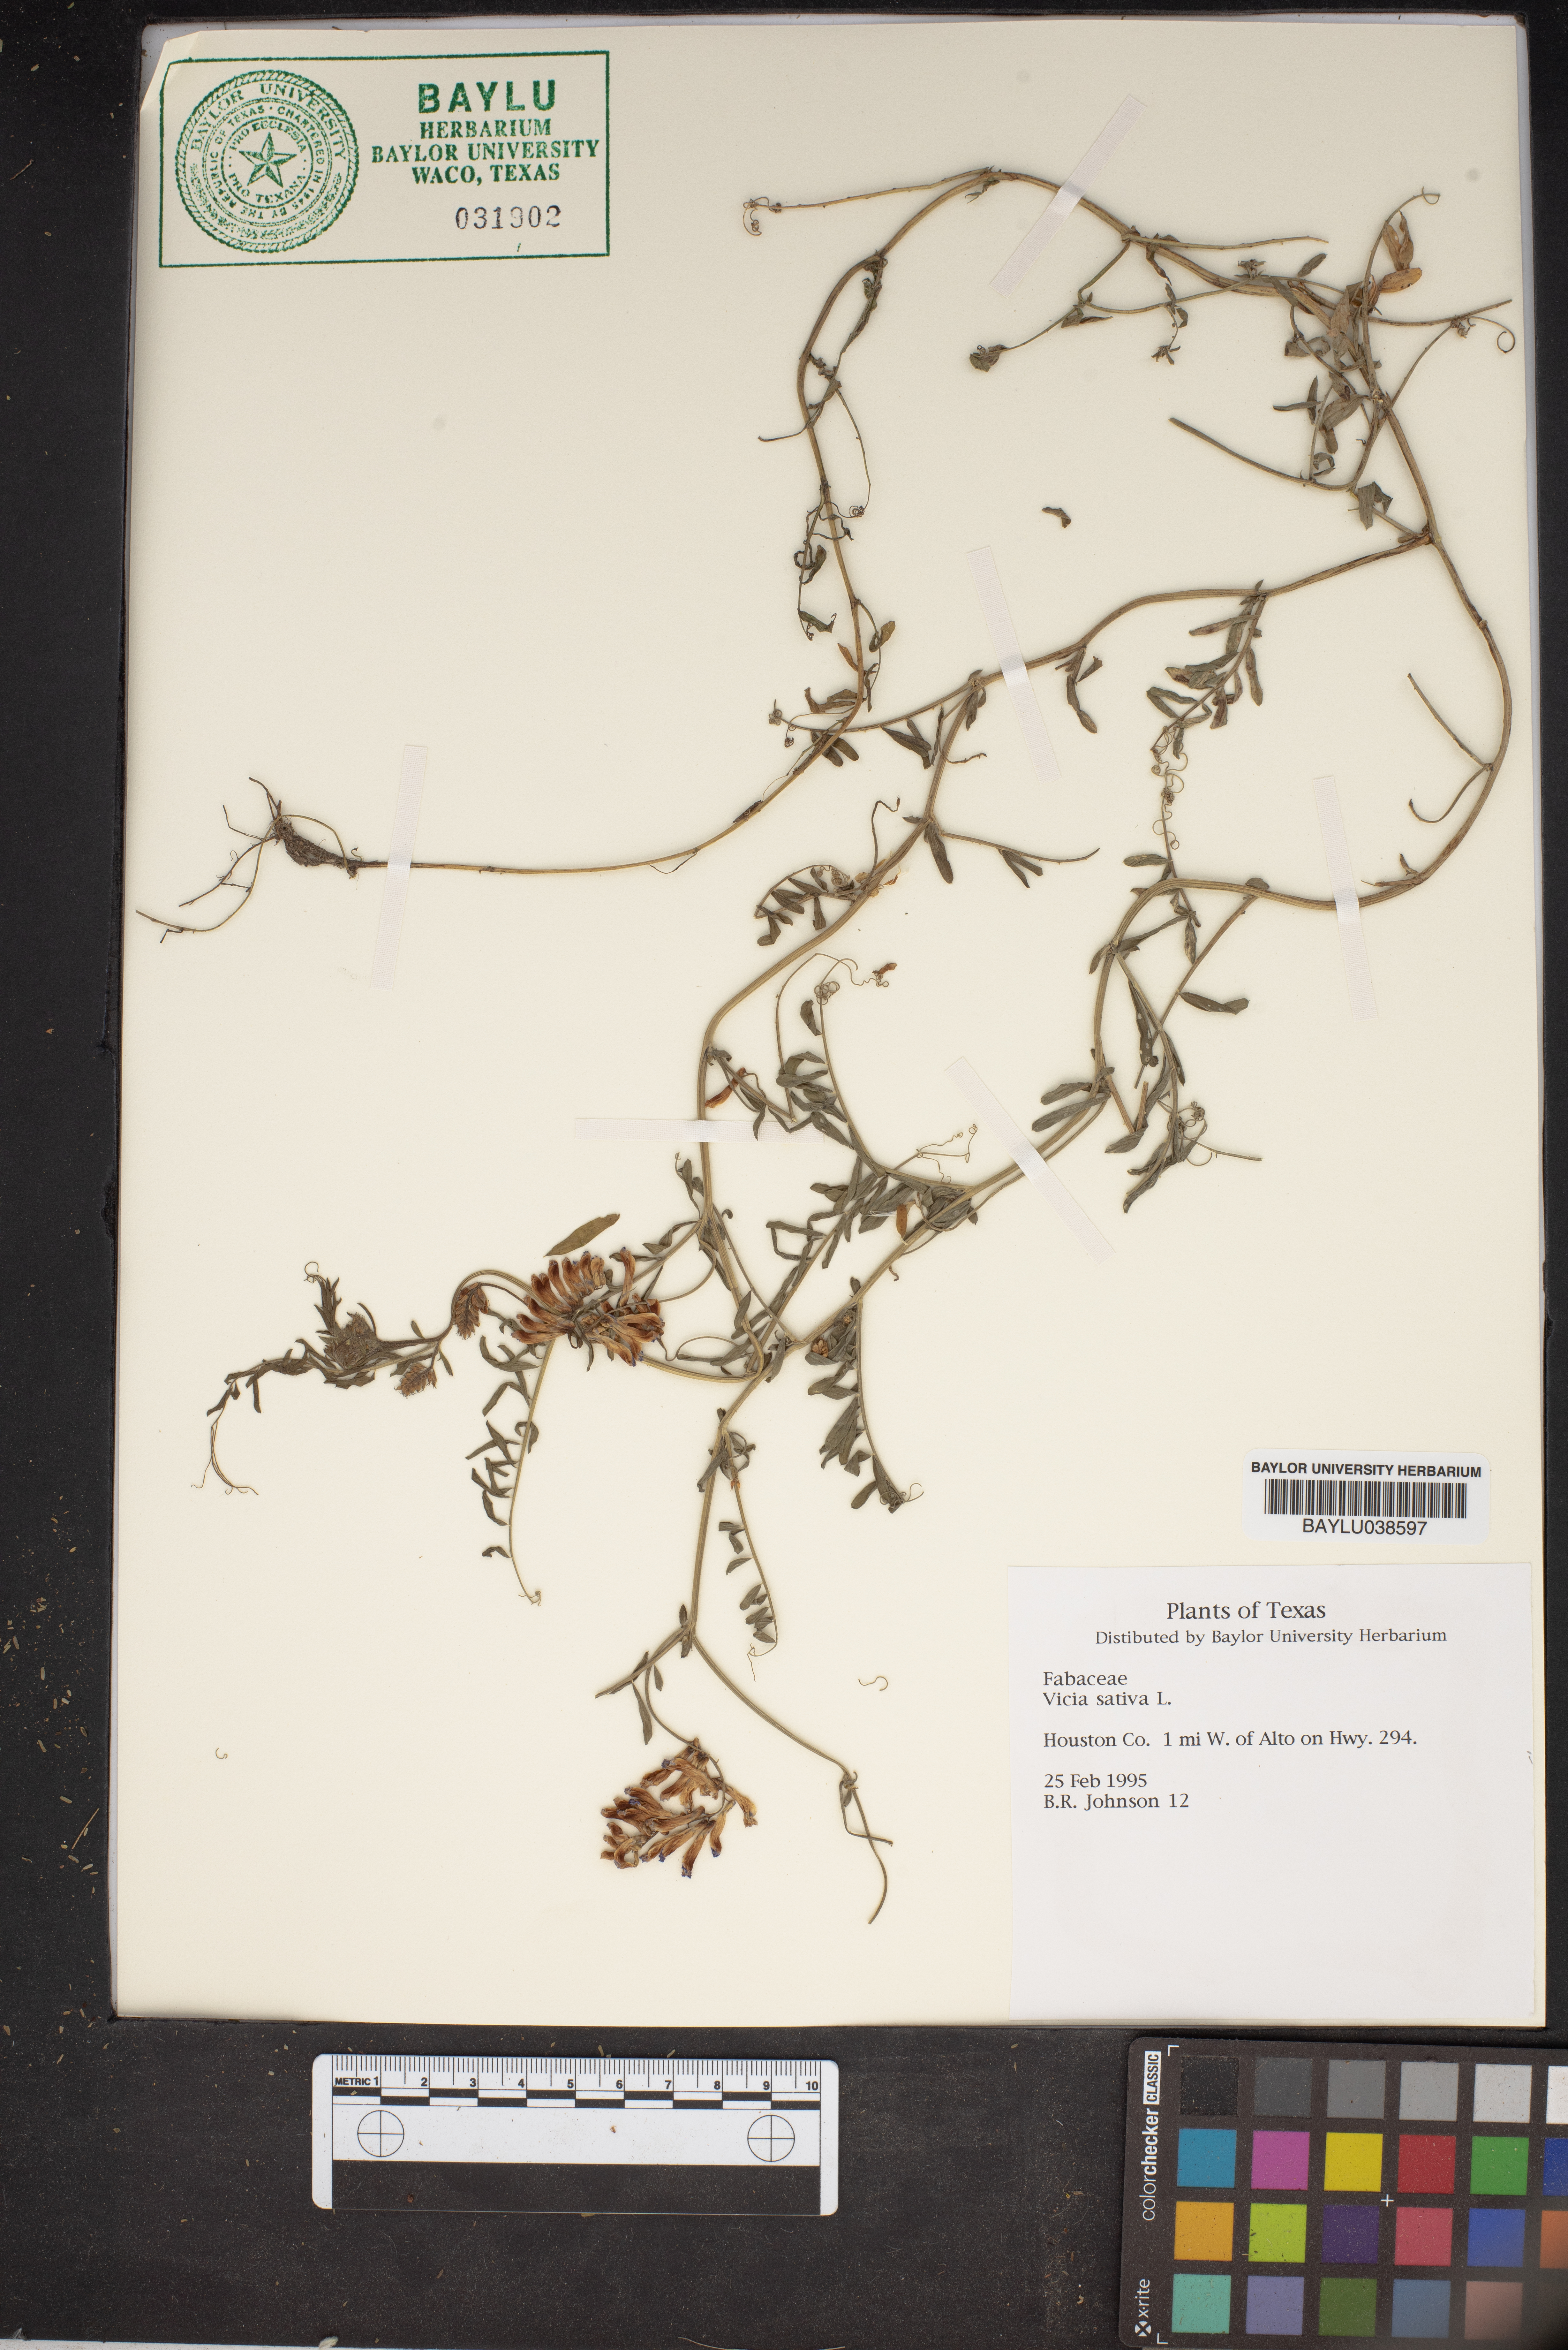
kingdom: Plantae
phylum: Tracheophyta
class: Magnoliopsida
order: Fabales
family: Fabaceae
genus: Vicia
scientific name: Vicia sativa
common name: Garden vetch
